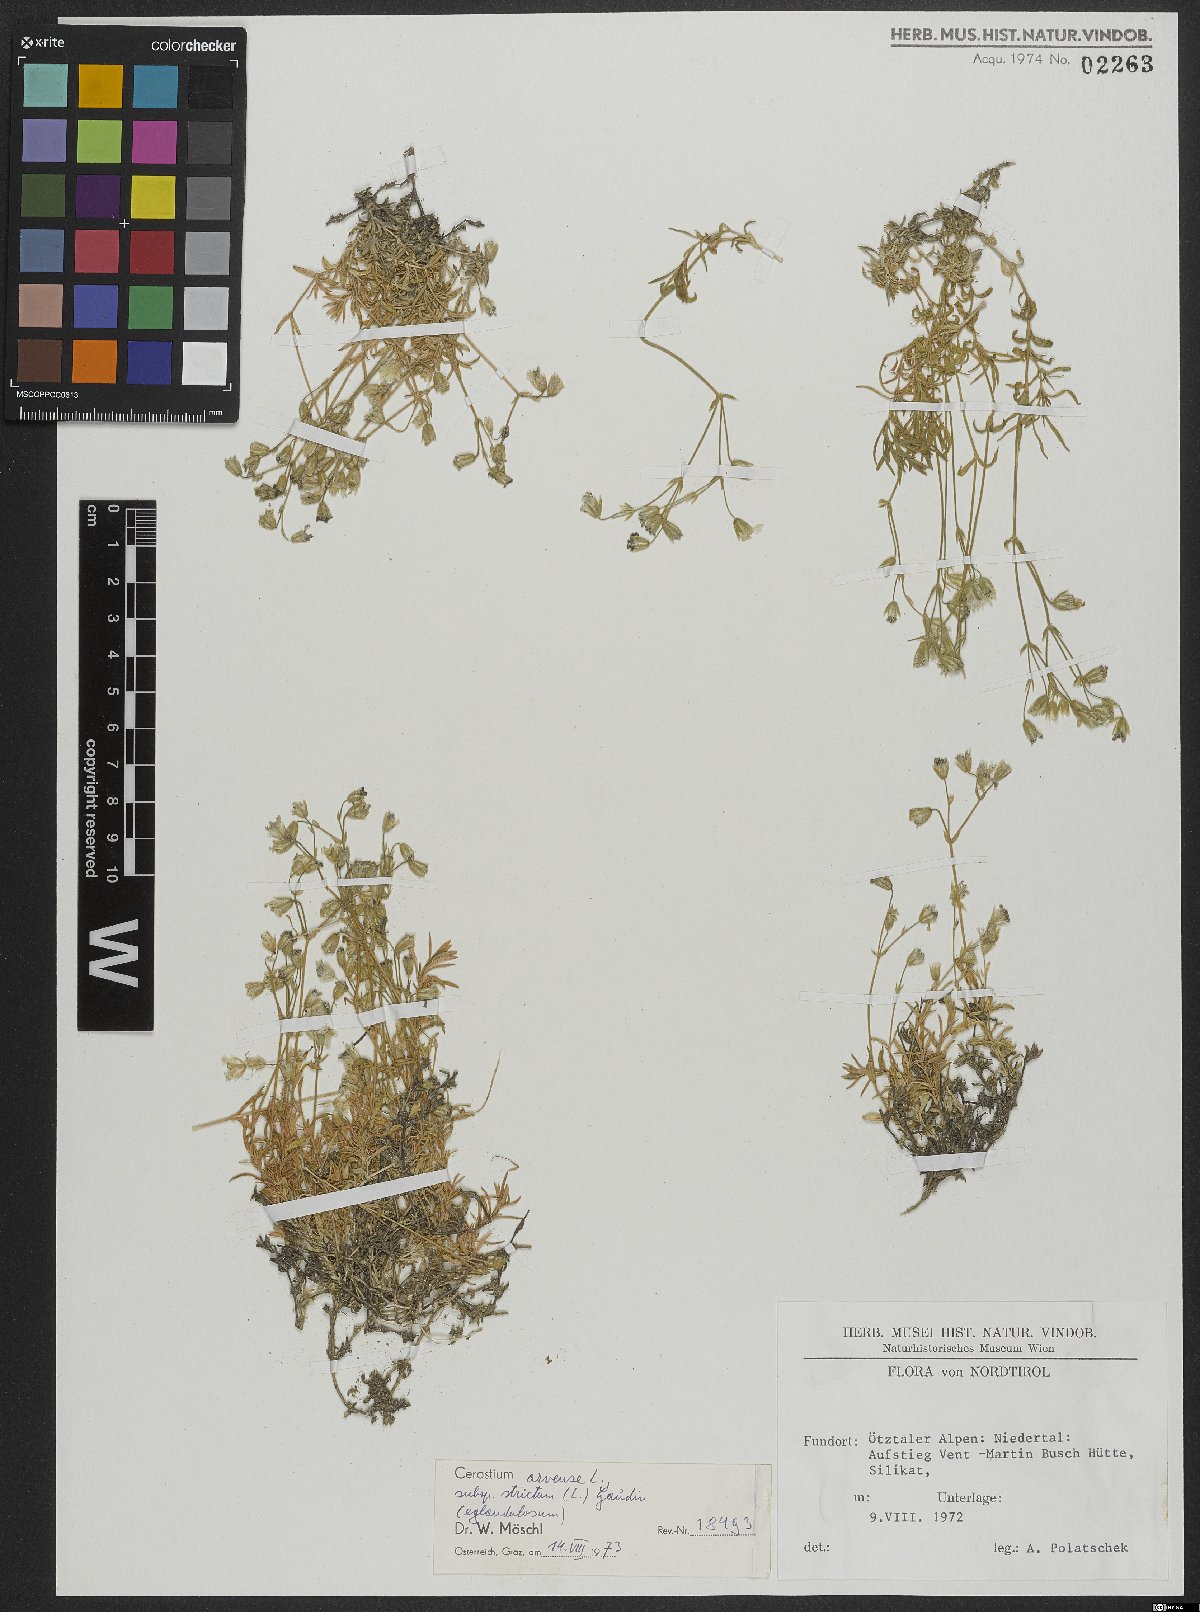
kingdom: Plantae
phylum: Tracheophyta
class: Magnoliopsida
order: Caryophyllales
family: Caryophyllaceae
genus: Cerastium
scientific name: Cerastium elongatum
